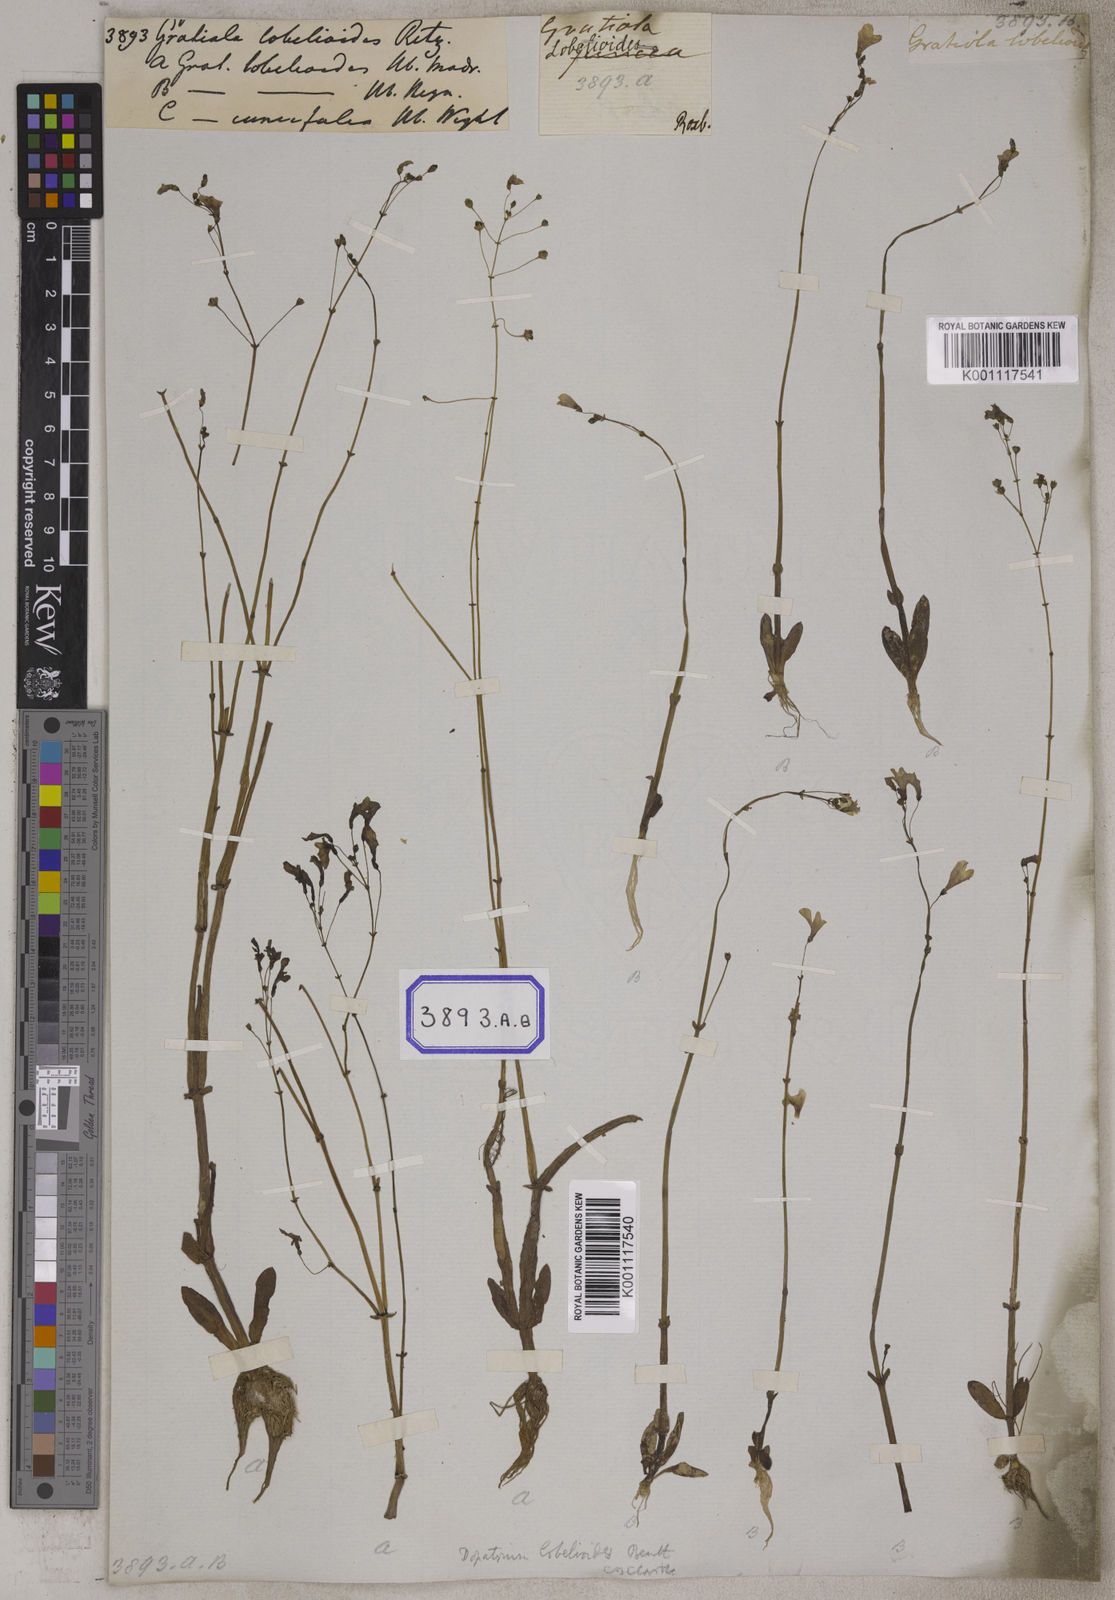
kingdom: Plantae
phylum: Tracheophyta
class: Magnoliopsida
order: Lamiales
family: Plantaginaceae
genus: Dopatrium
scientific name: Dopatrium lobelioides
